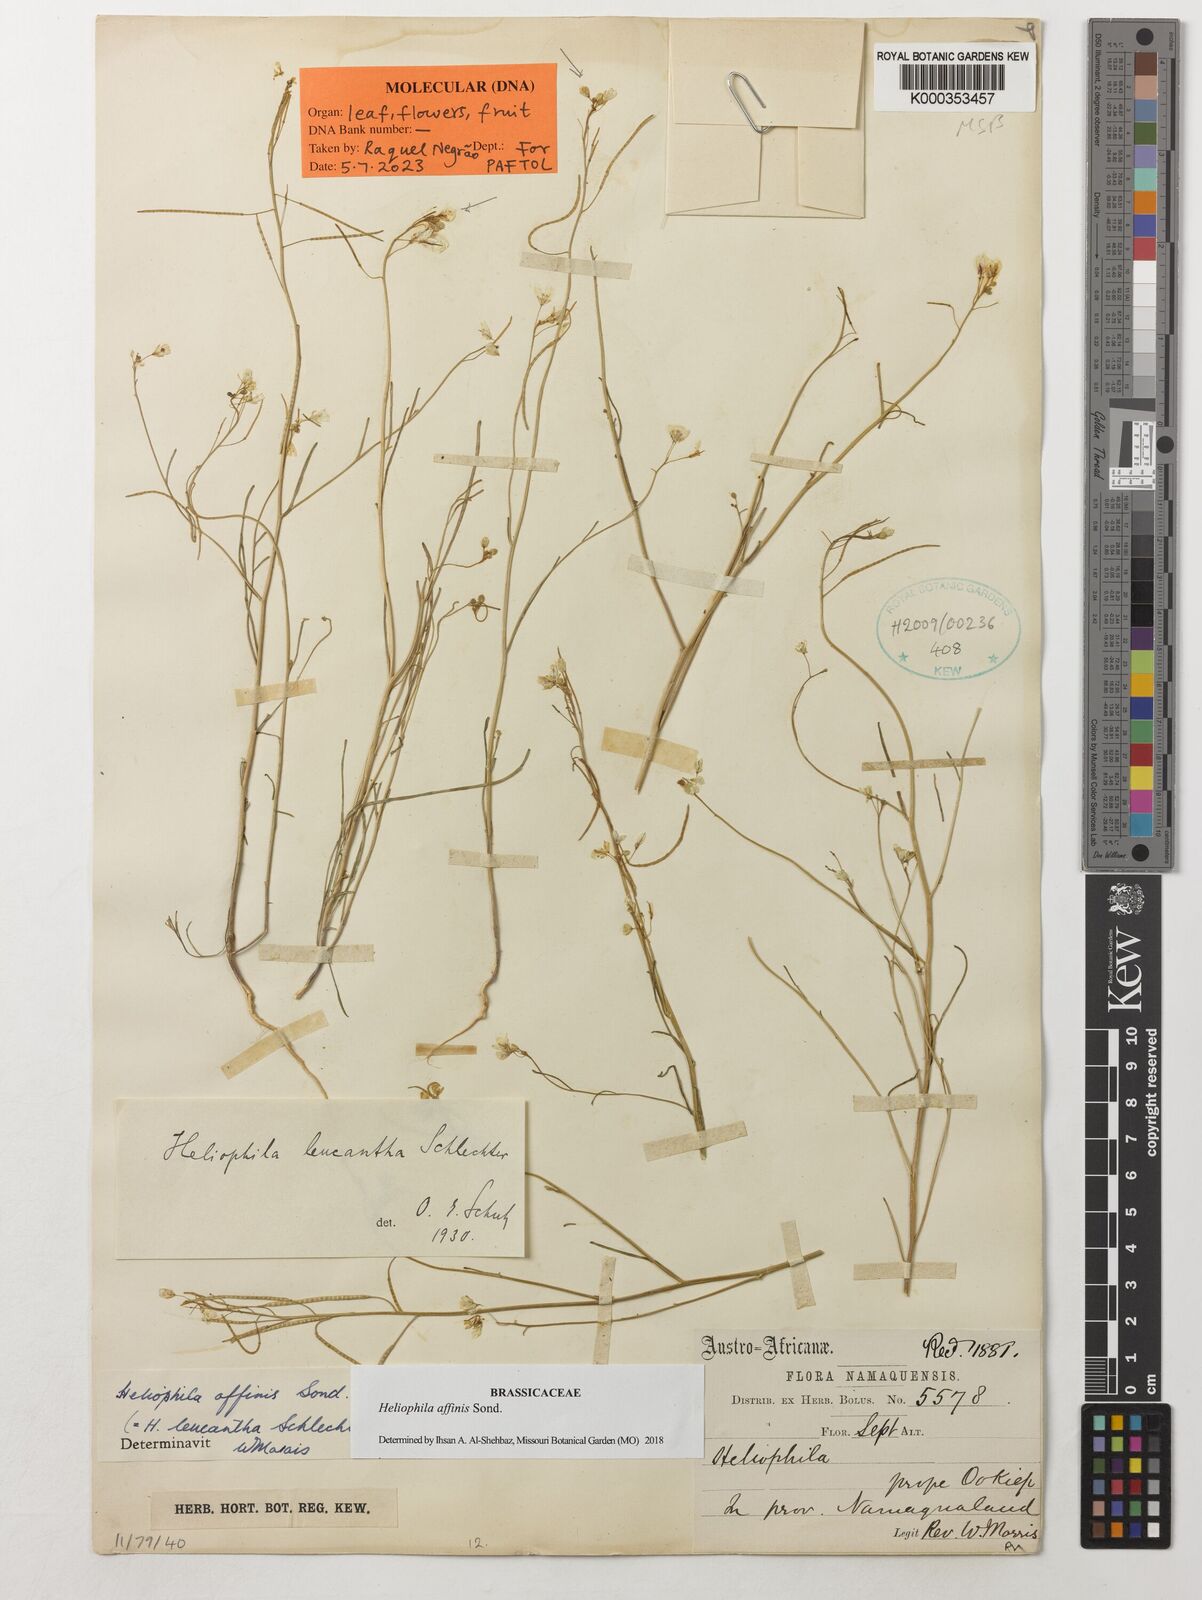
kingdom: Plantae
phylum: Tracheophyta
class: Magnoliopsida
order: Brassicales
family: Brassicaceae
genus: Heliophila
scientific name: Heliophila affinis
